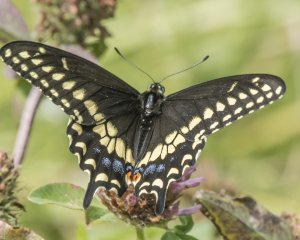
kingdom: Animalia
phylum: Arthropoda
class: Insecta
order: Lepidoptera
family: Papilionidae
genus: Papilio
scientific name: Papilio polyxenes
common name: Black Swallowtail
